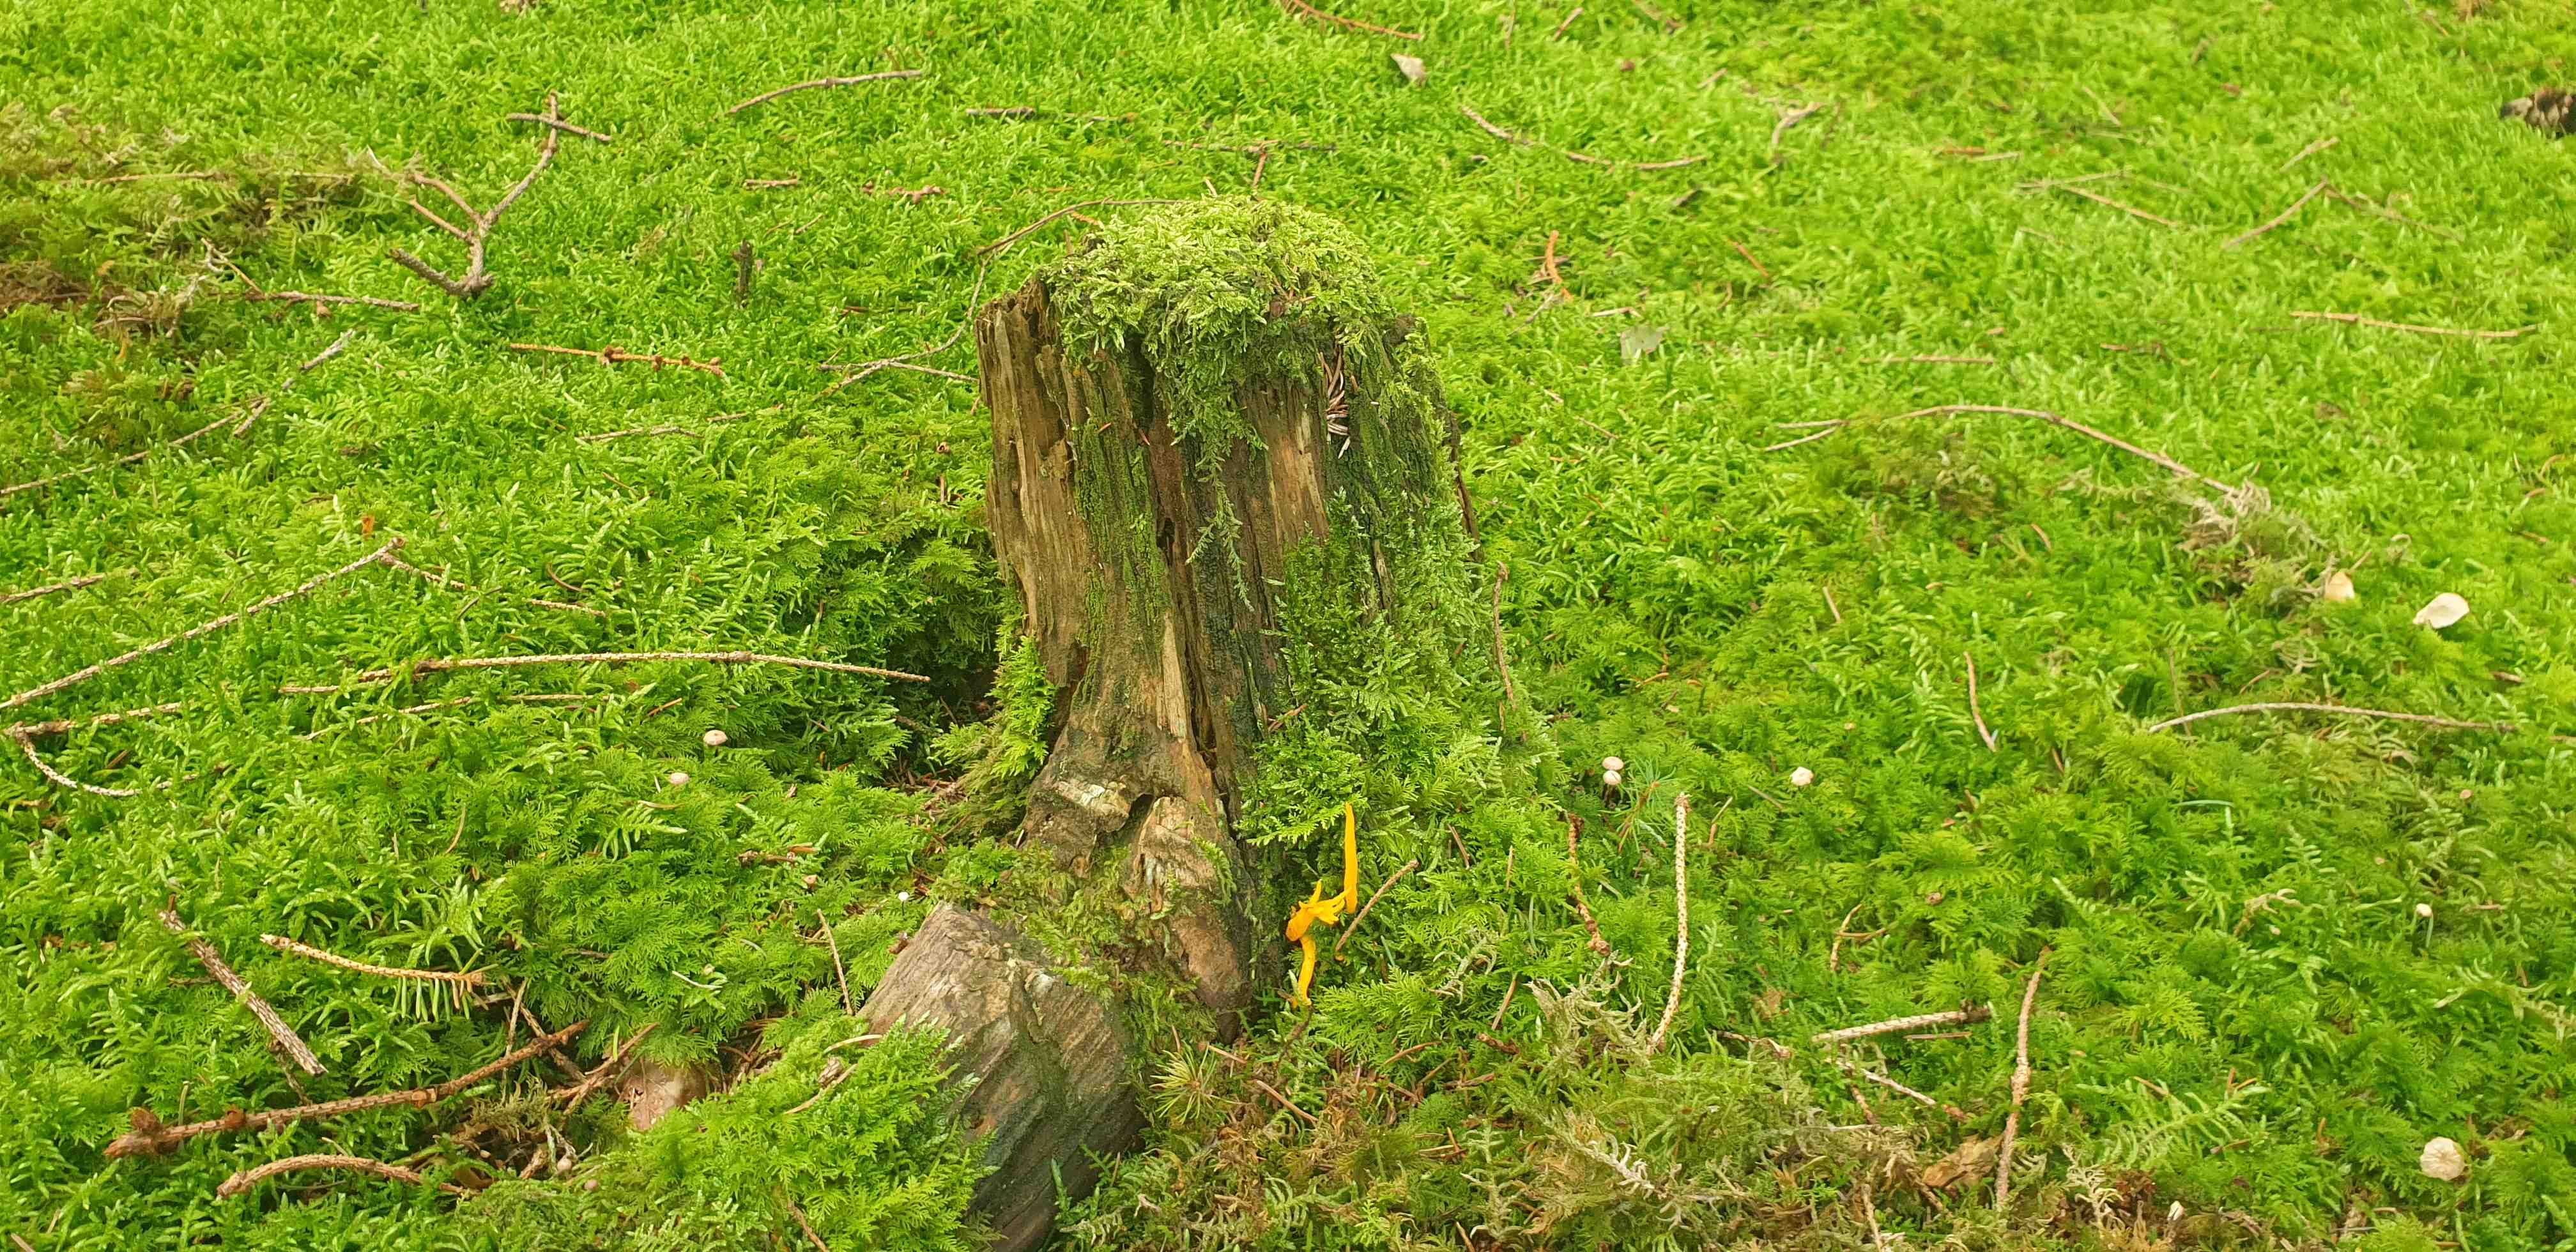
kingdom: Fungi
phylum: Basidiomycota
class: Dacrymycetes
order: Dacrymycetales
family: Dacrymycetaceae
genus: Calocera
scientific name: Calocera viscosa
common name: almindelig guldgaffel
